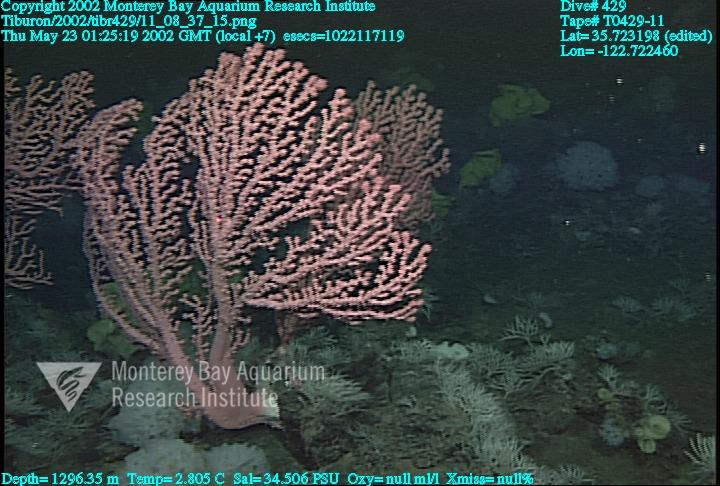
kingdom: Animalia
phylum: Porifera
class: Hexactinellida
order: Sceptrulophora
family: Farreidae
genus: Farrea
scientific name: Farrea occa
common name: Reversed glass sponge
